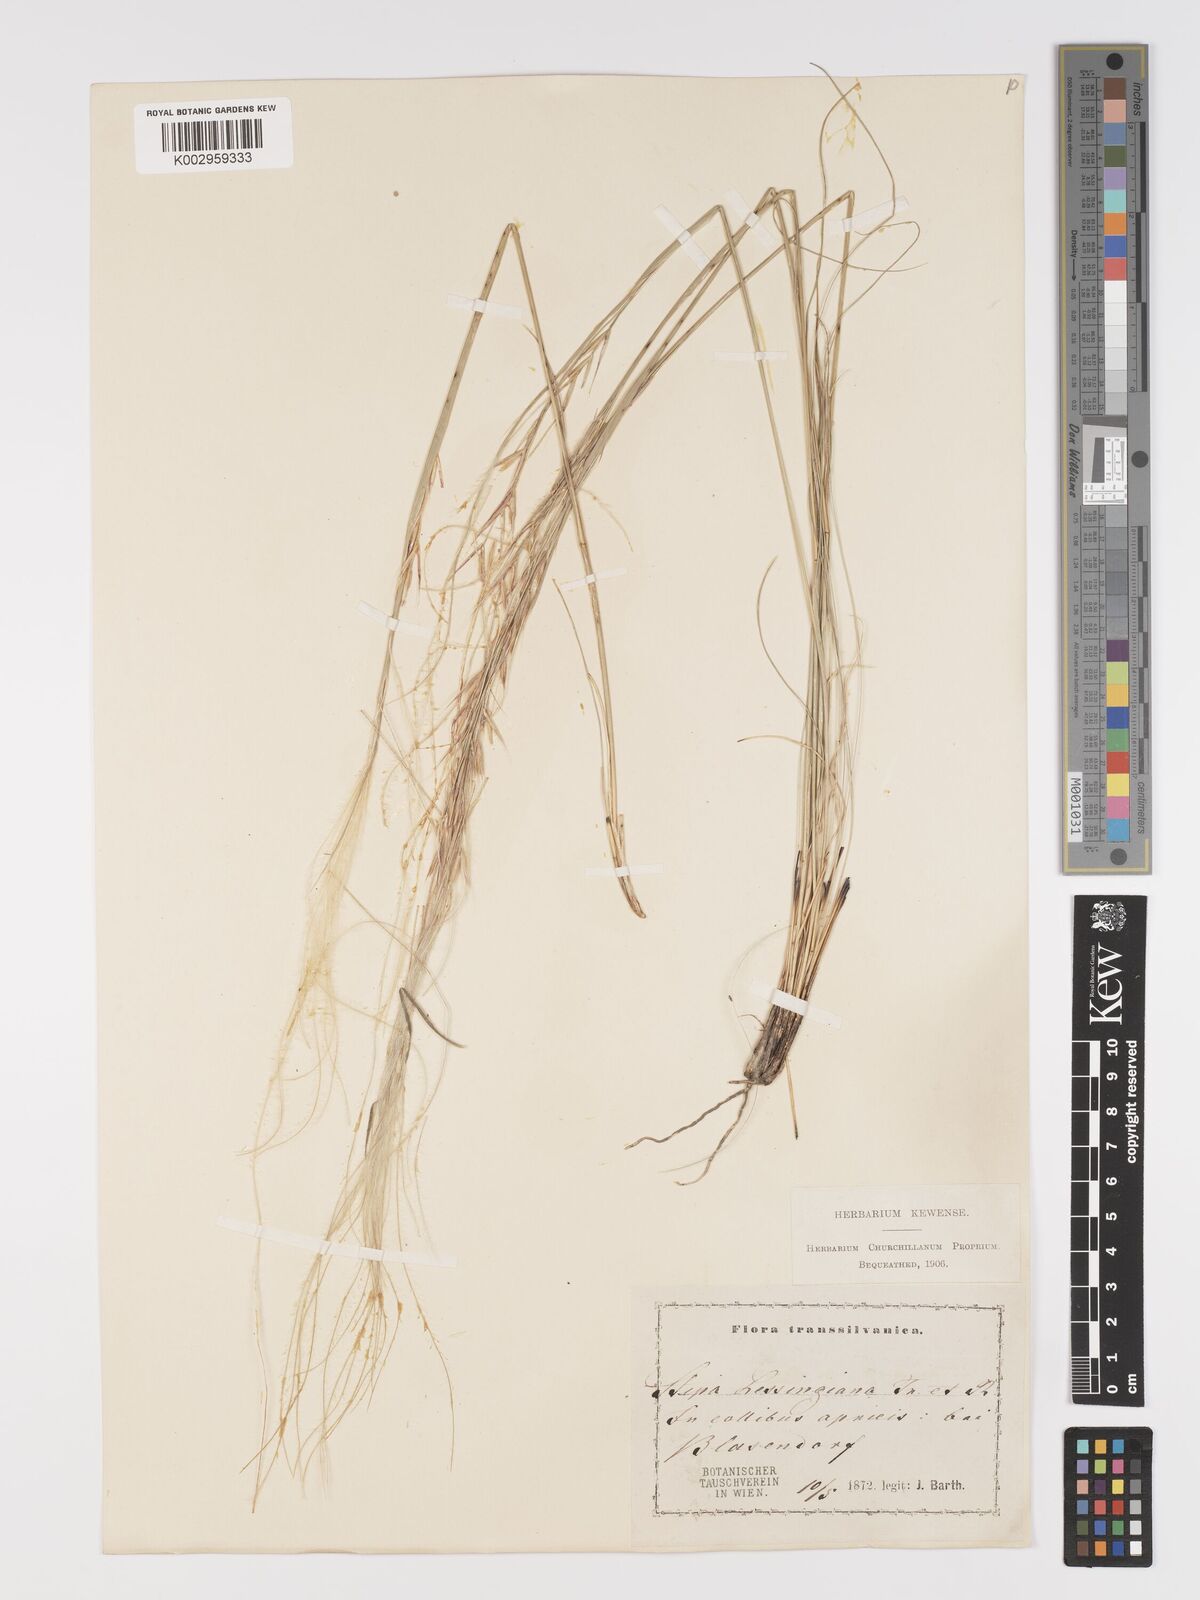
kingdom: Plantae
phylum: Tracheophyta
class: Liliopsida
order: Poales
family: Poaceae
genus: Stipa
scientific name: Stipa lessingiana
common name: Needle grass
